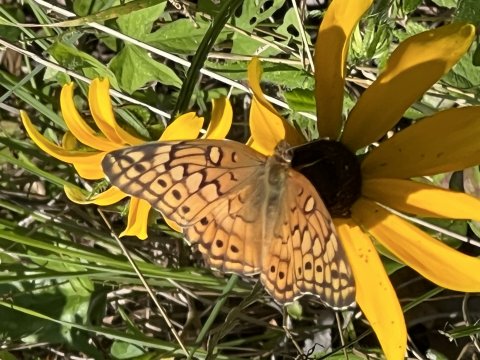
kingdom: Animalia
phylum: Arthropoda
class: Insecta
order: Lepidoptera
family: Nymphalidae
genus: Euptoieta
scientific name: Euptoieta claudia
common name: Variegated Fritillary
